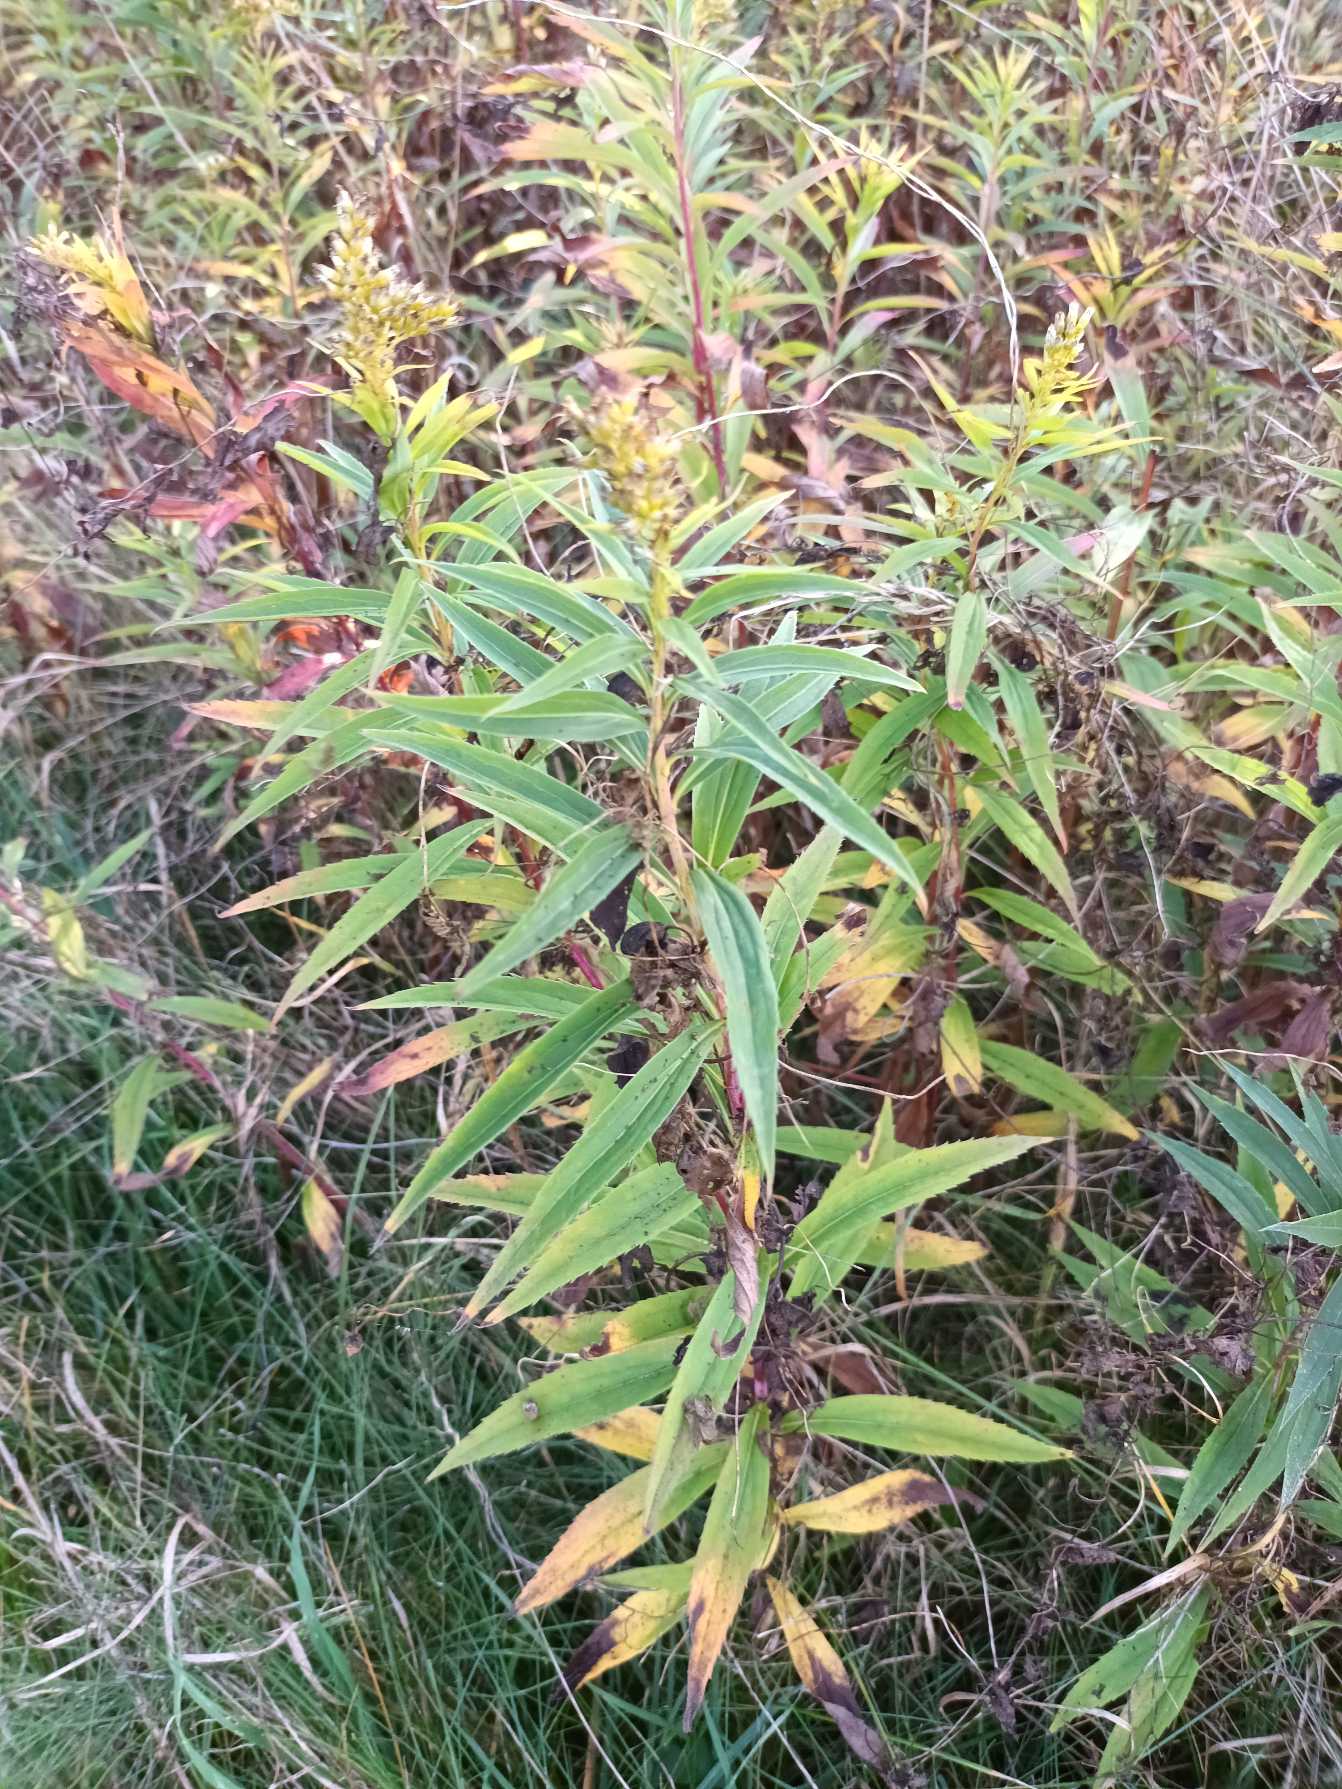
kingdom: Plantae
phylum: Tracheophyta
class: Magnoliopsida
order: Asterales
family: Asteraceae
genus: Solidago
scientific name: Solidago gigantea
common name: Sildig gyldenris
